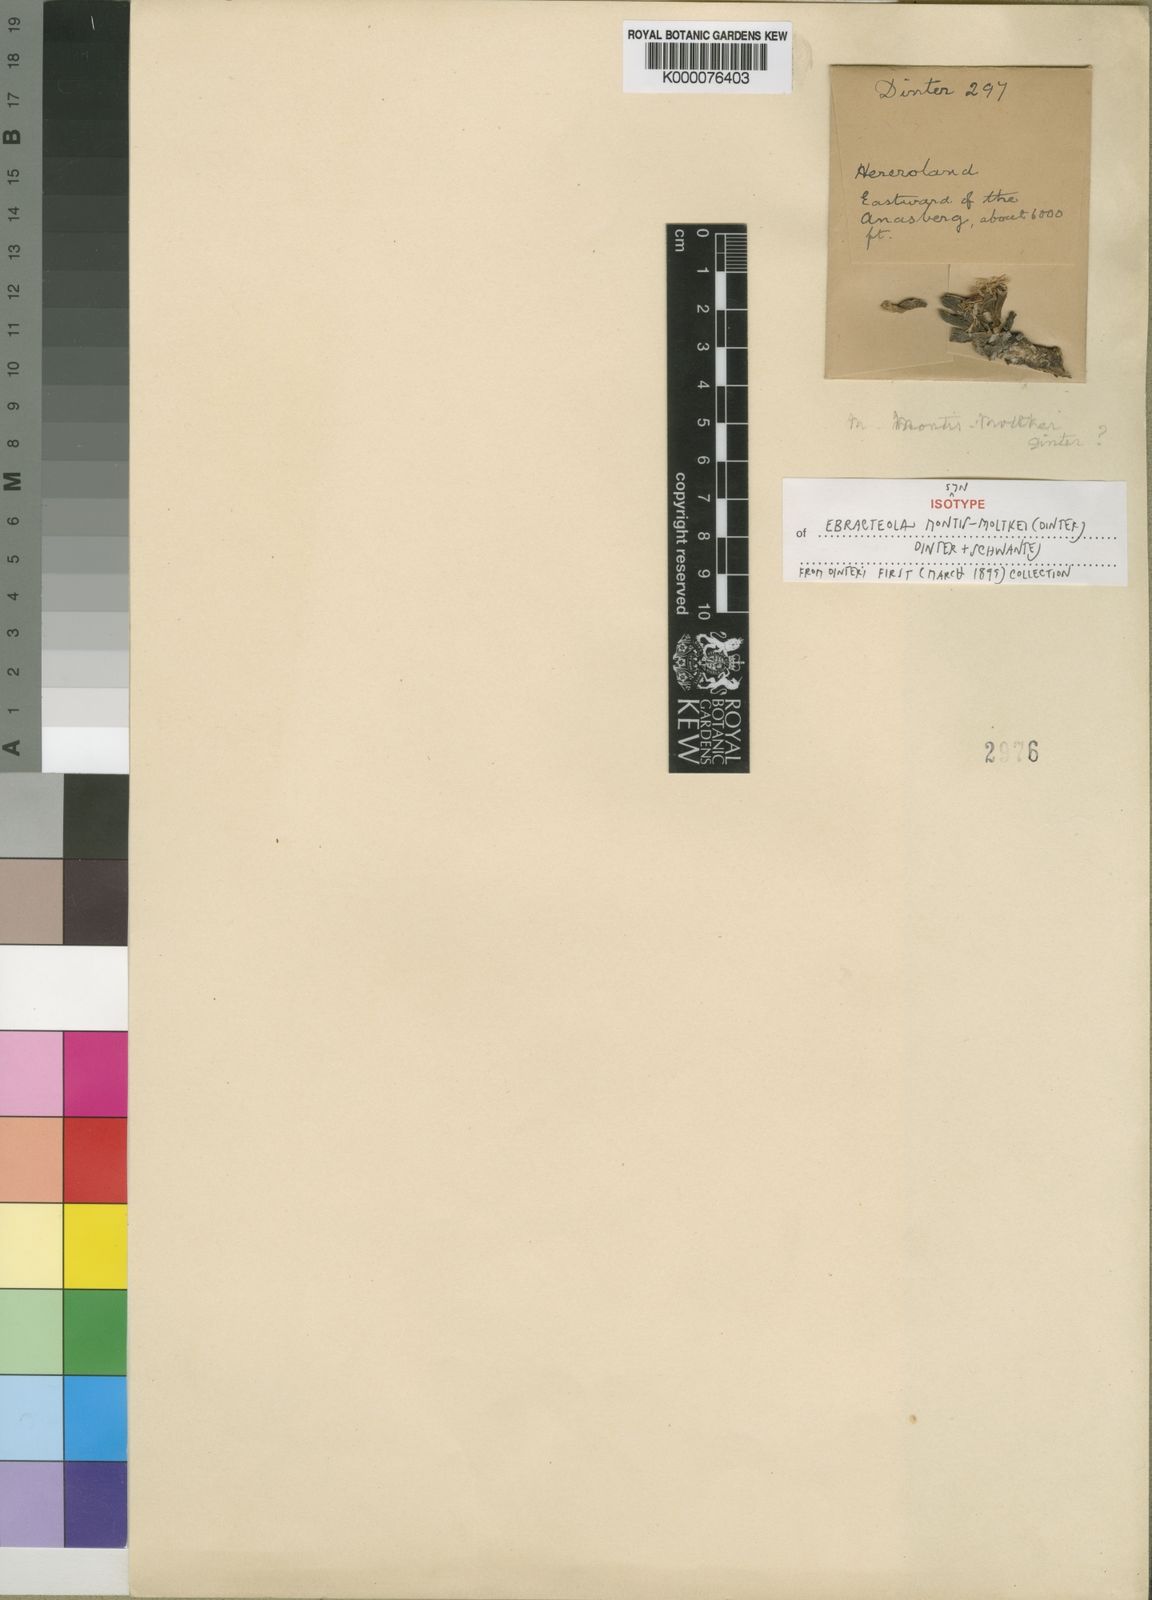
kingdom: Plantae
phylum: Tracheophyta
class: Magnoliopsida
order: Caryophyllales
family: Aizoaceae
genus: Ebracteola
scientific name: Ebracteola montis-moltkei
